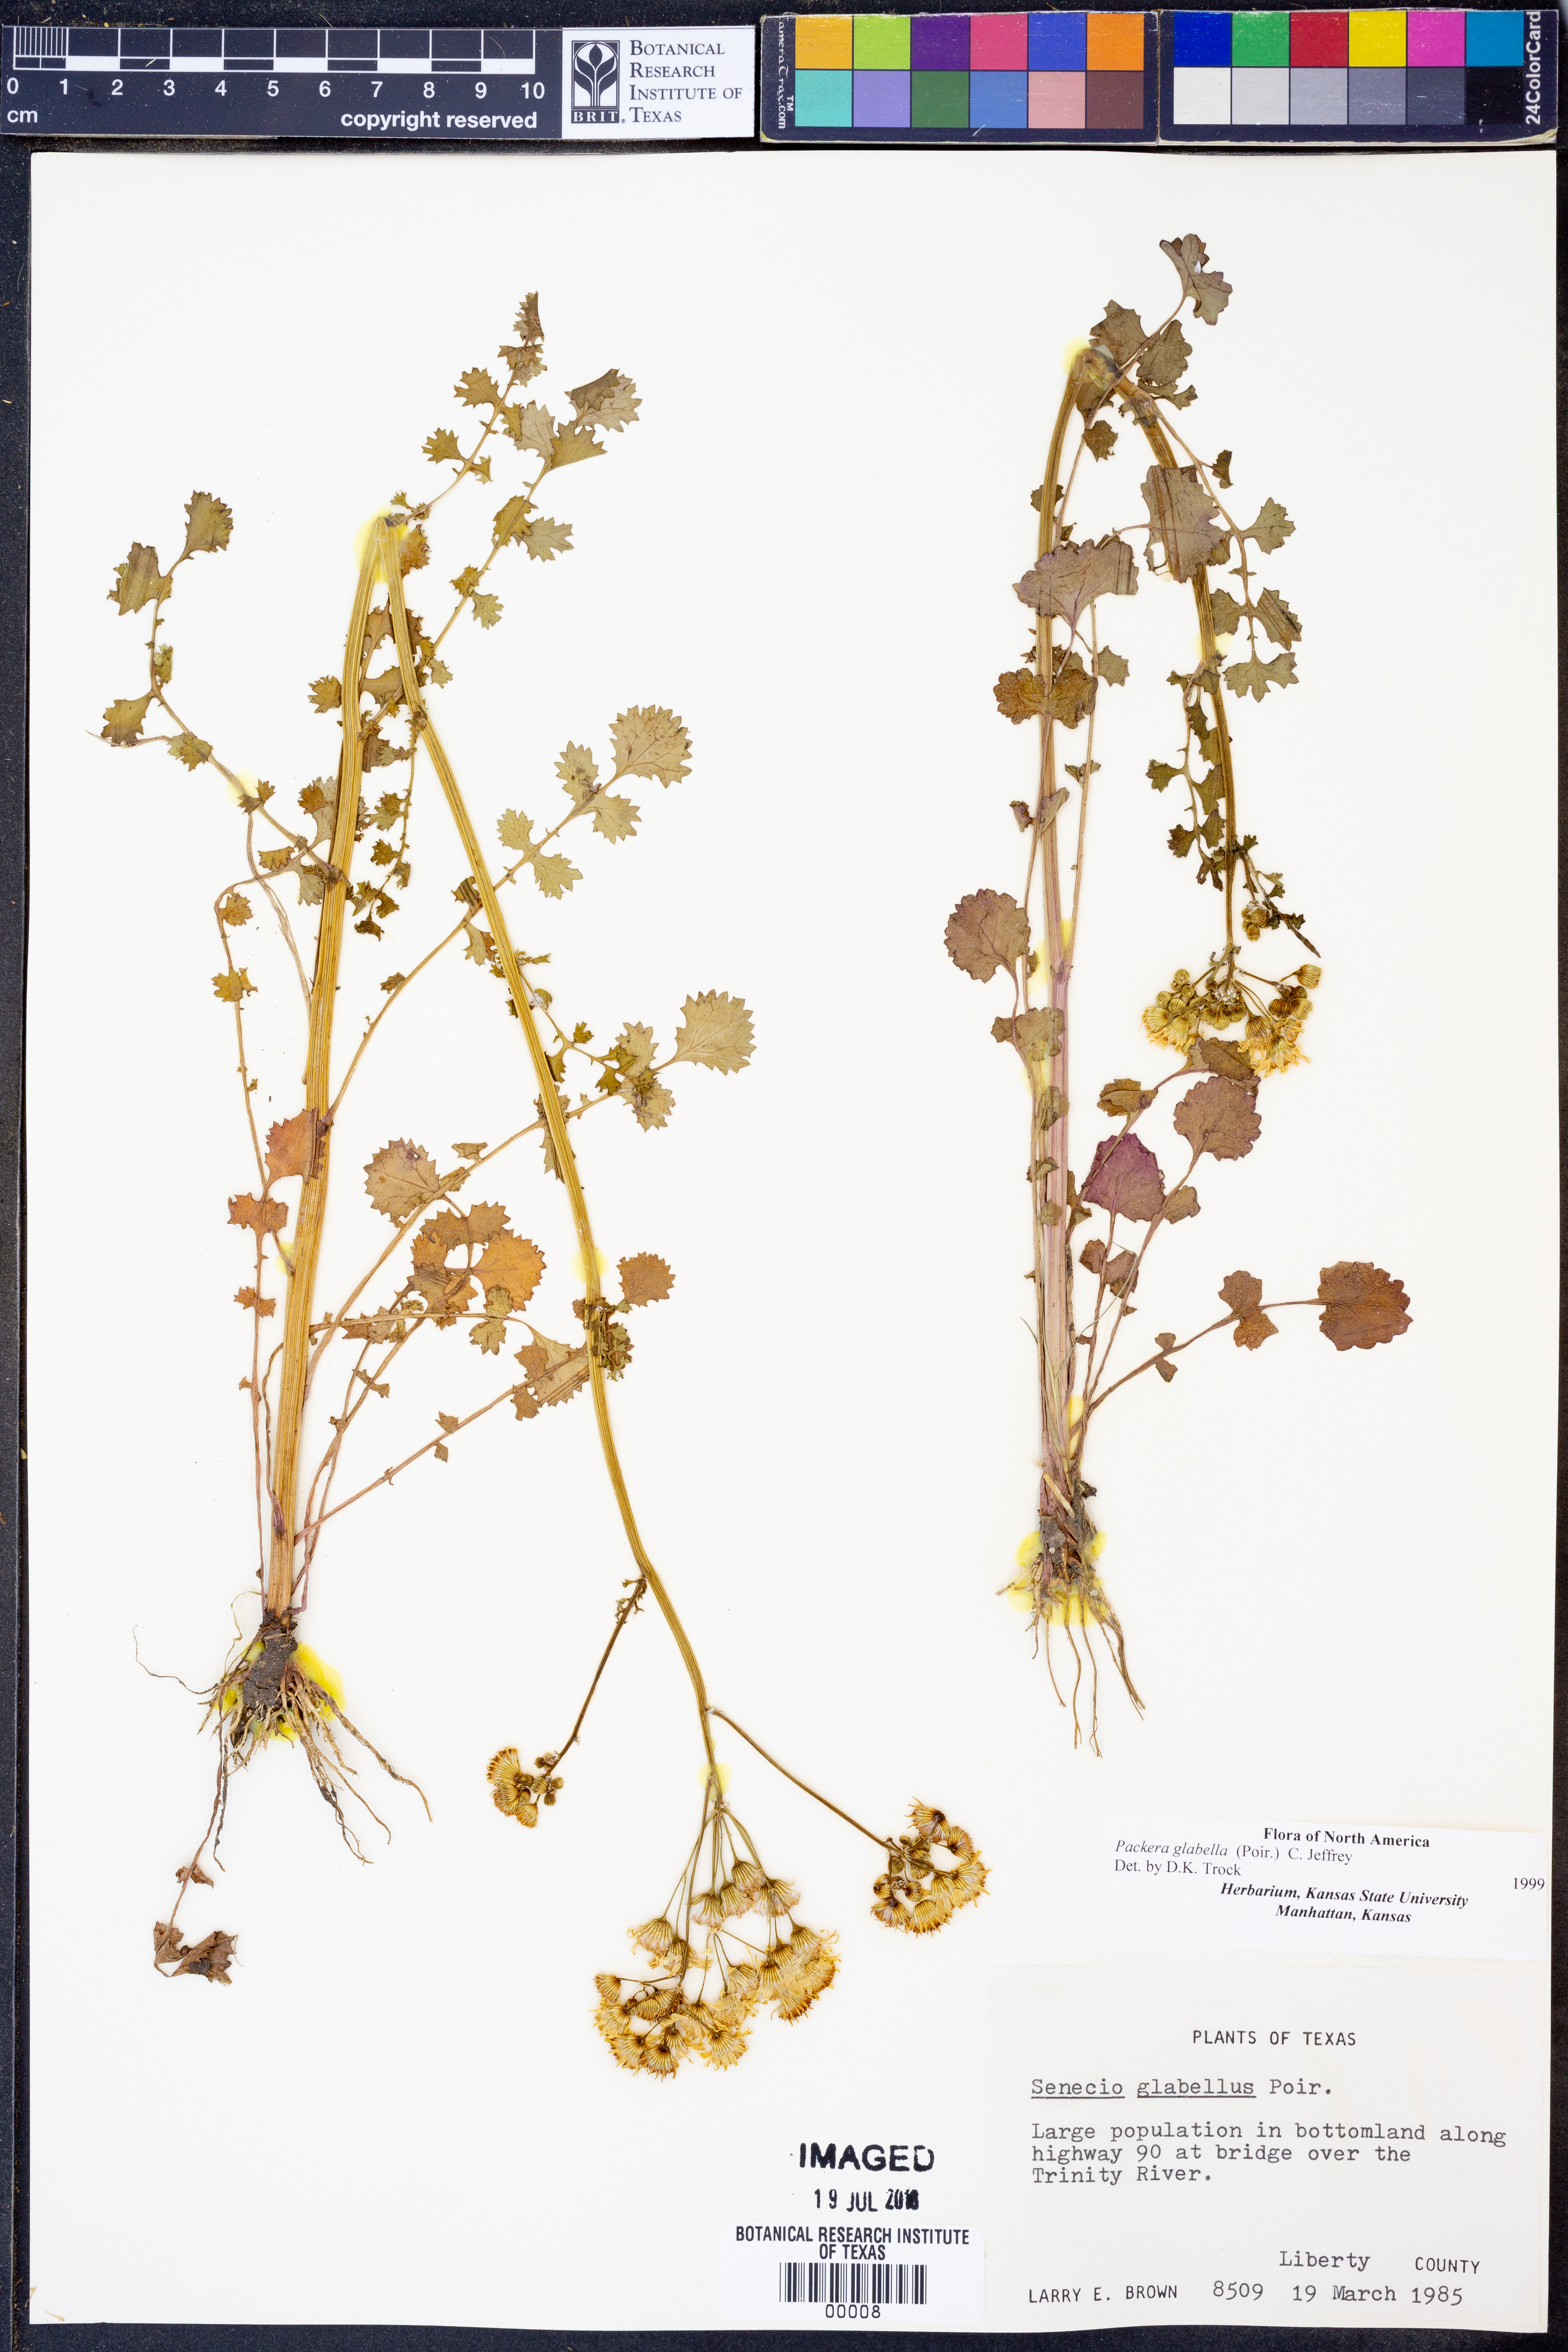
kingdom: Plantae
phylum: Tracheophyta
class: Magnoliopsida
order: Asterales
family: Asteraceae
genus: Packera
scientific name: Packera glabella
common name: Butterweed
